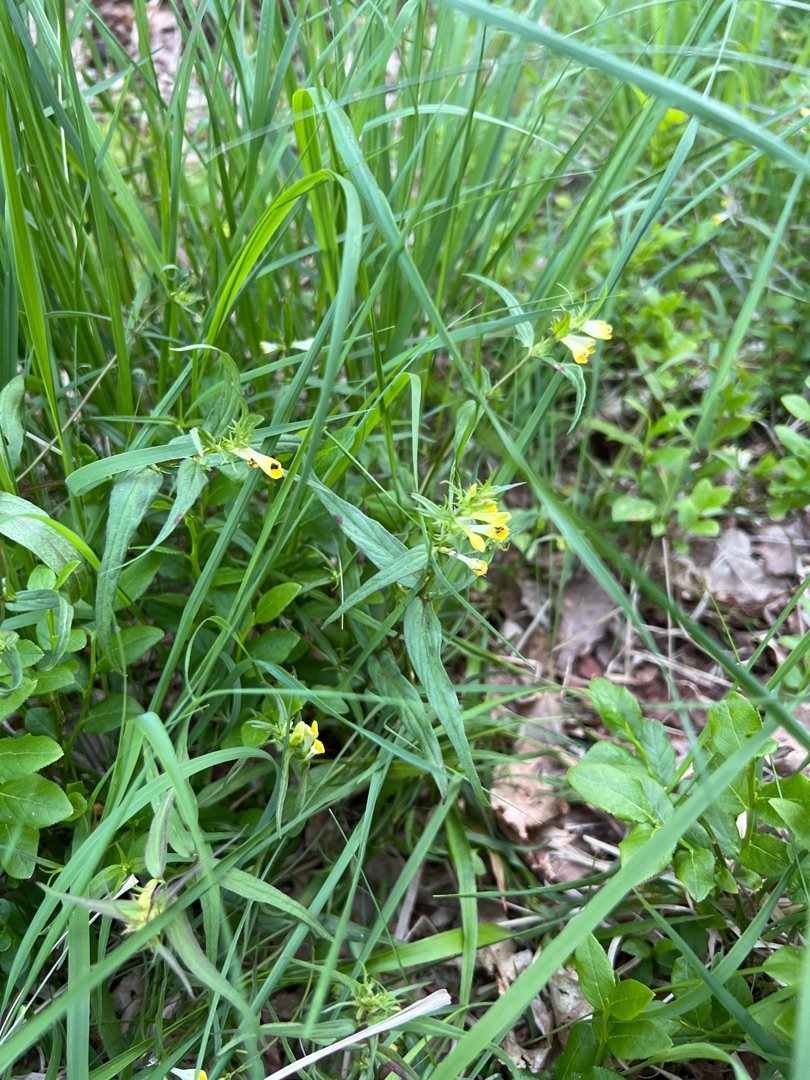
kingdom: Plantae
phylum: Tracheophyta
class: Magnoliopsida
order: Lamiales
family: Orobanchaceae
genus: Melampyrum
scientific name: Melampyrum pratense
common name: Almindelig kohvede
